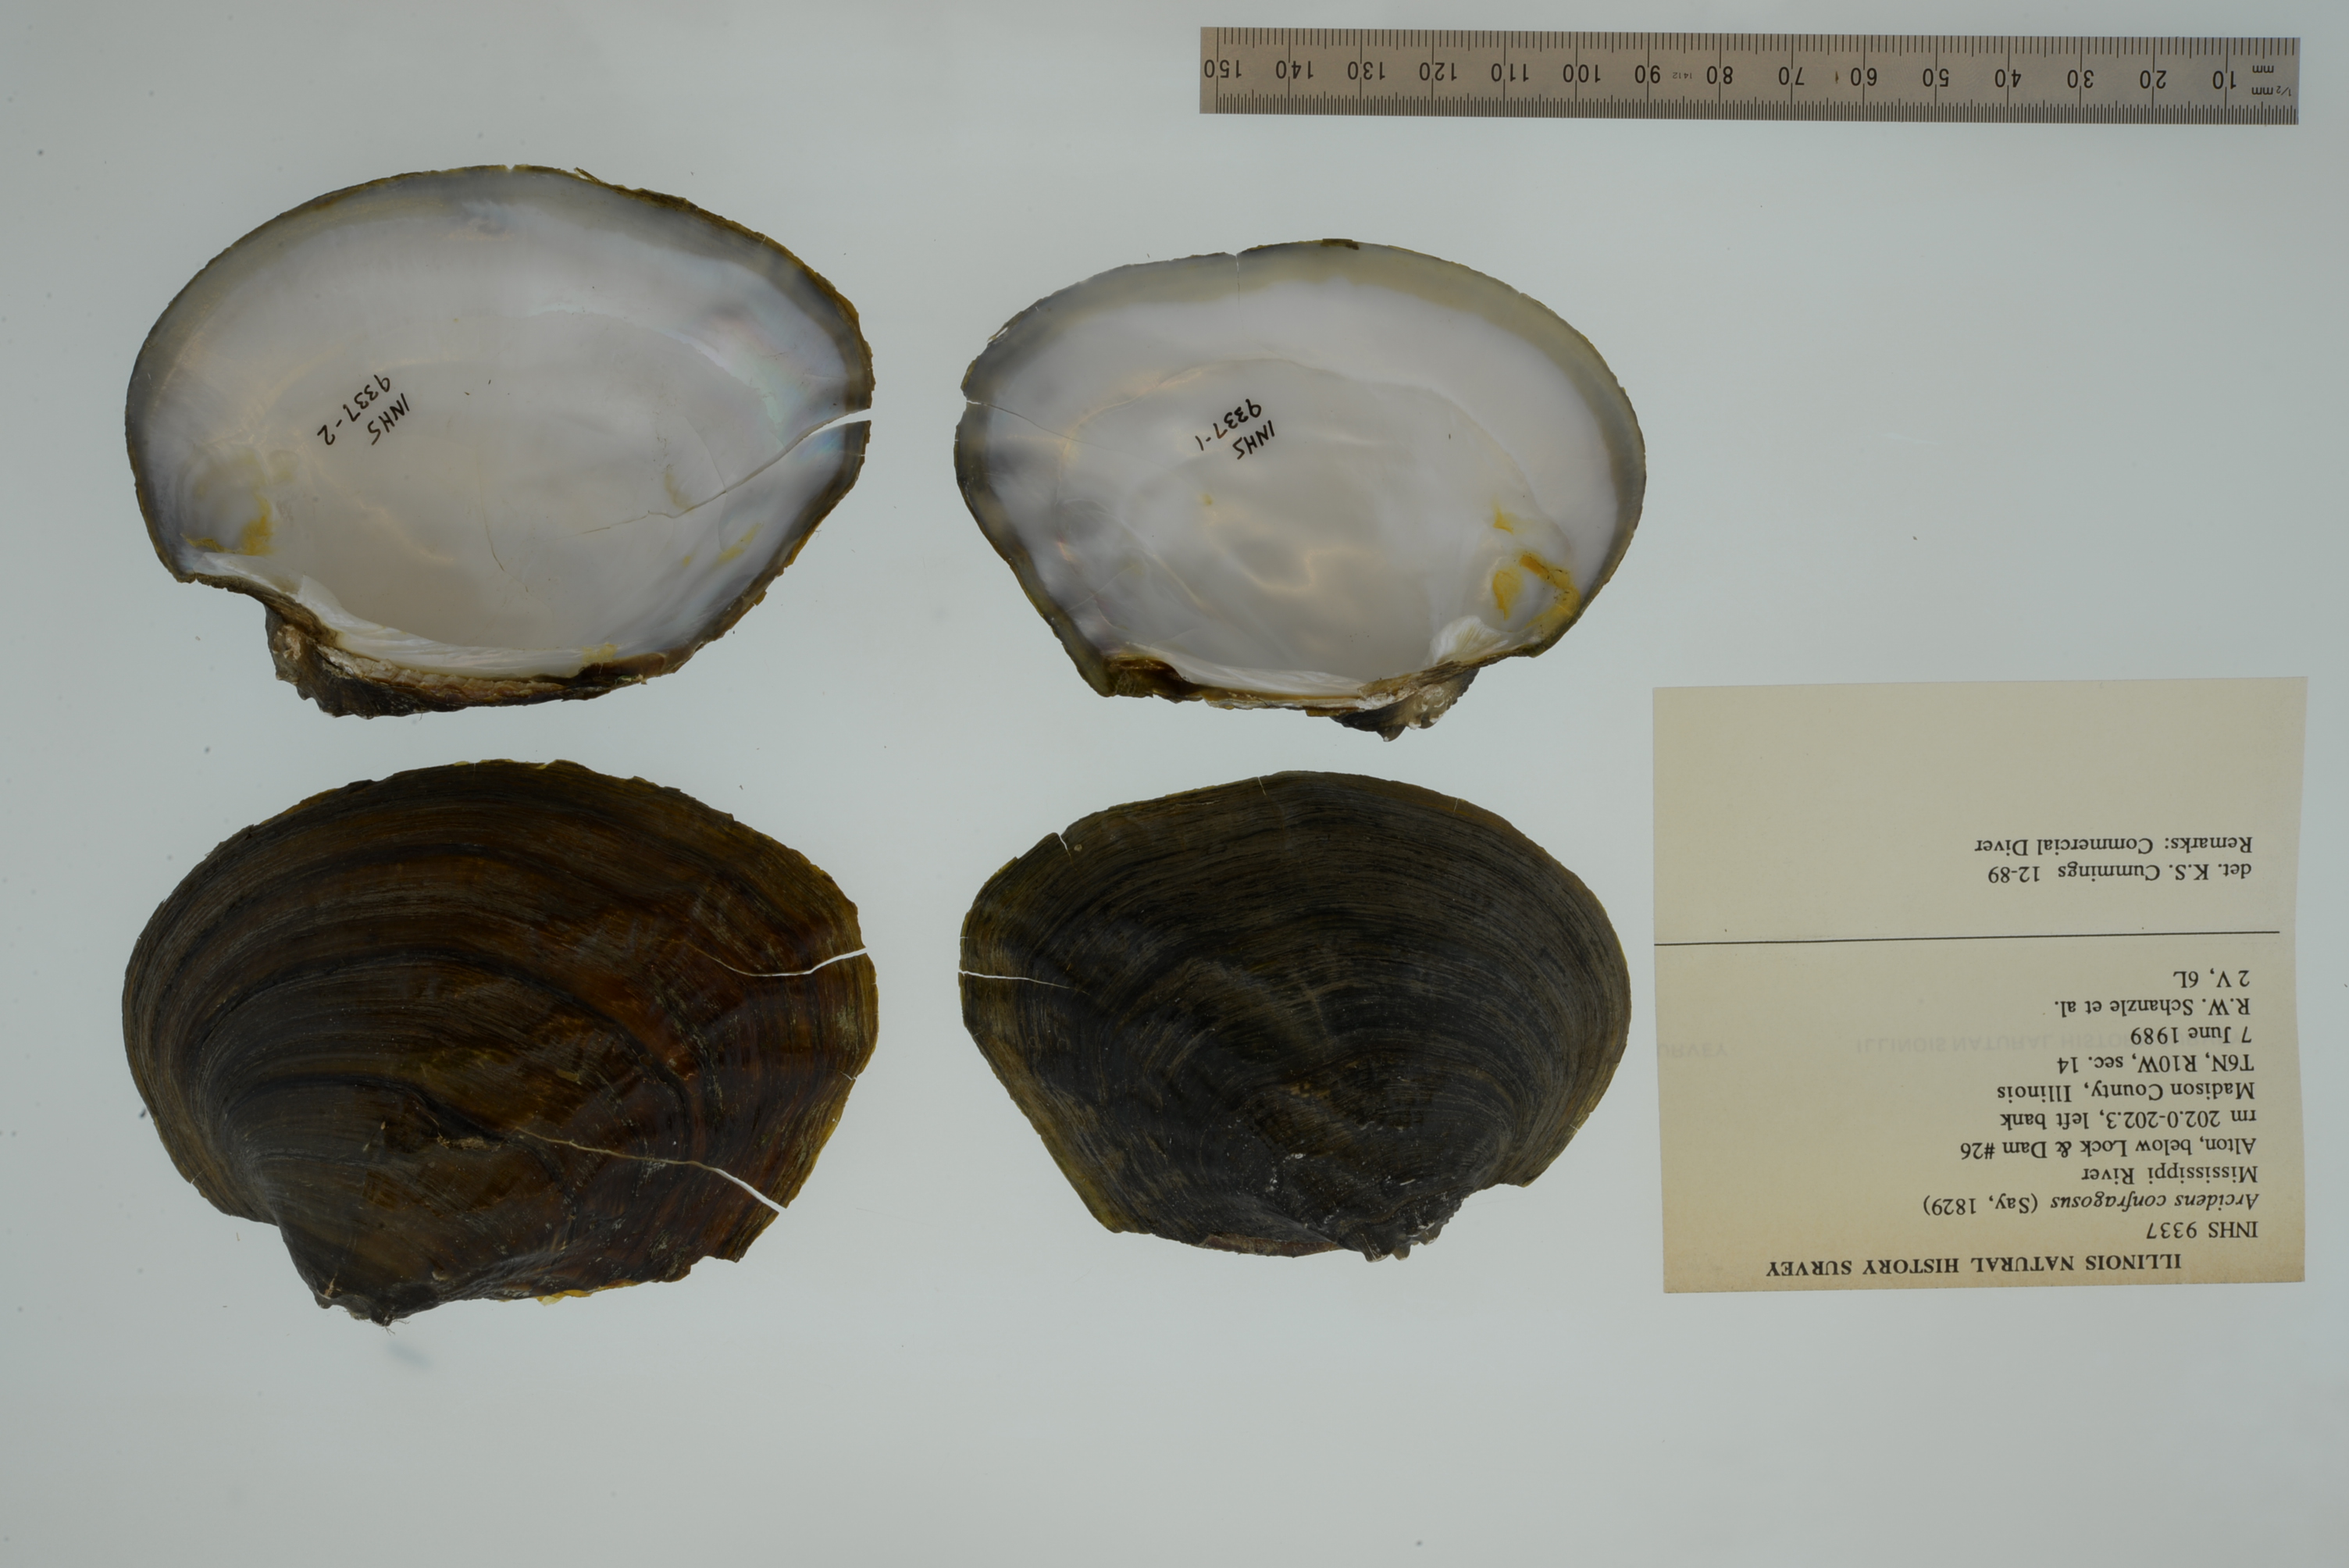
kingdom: Animalia
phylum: Mollusca
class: Bivalvia
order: Unionida
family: Unionidae
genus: Arcidens
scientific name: Arcidens confragosus
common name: Rock pocketbook
